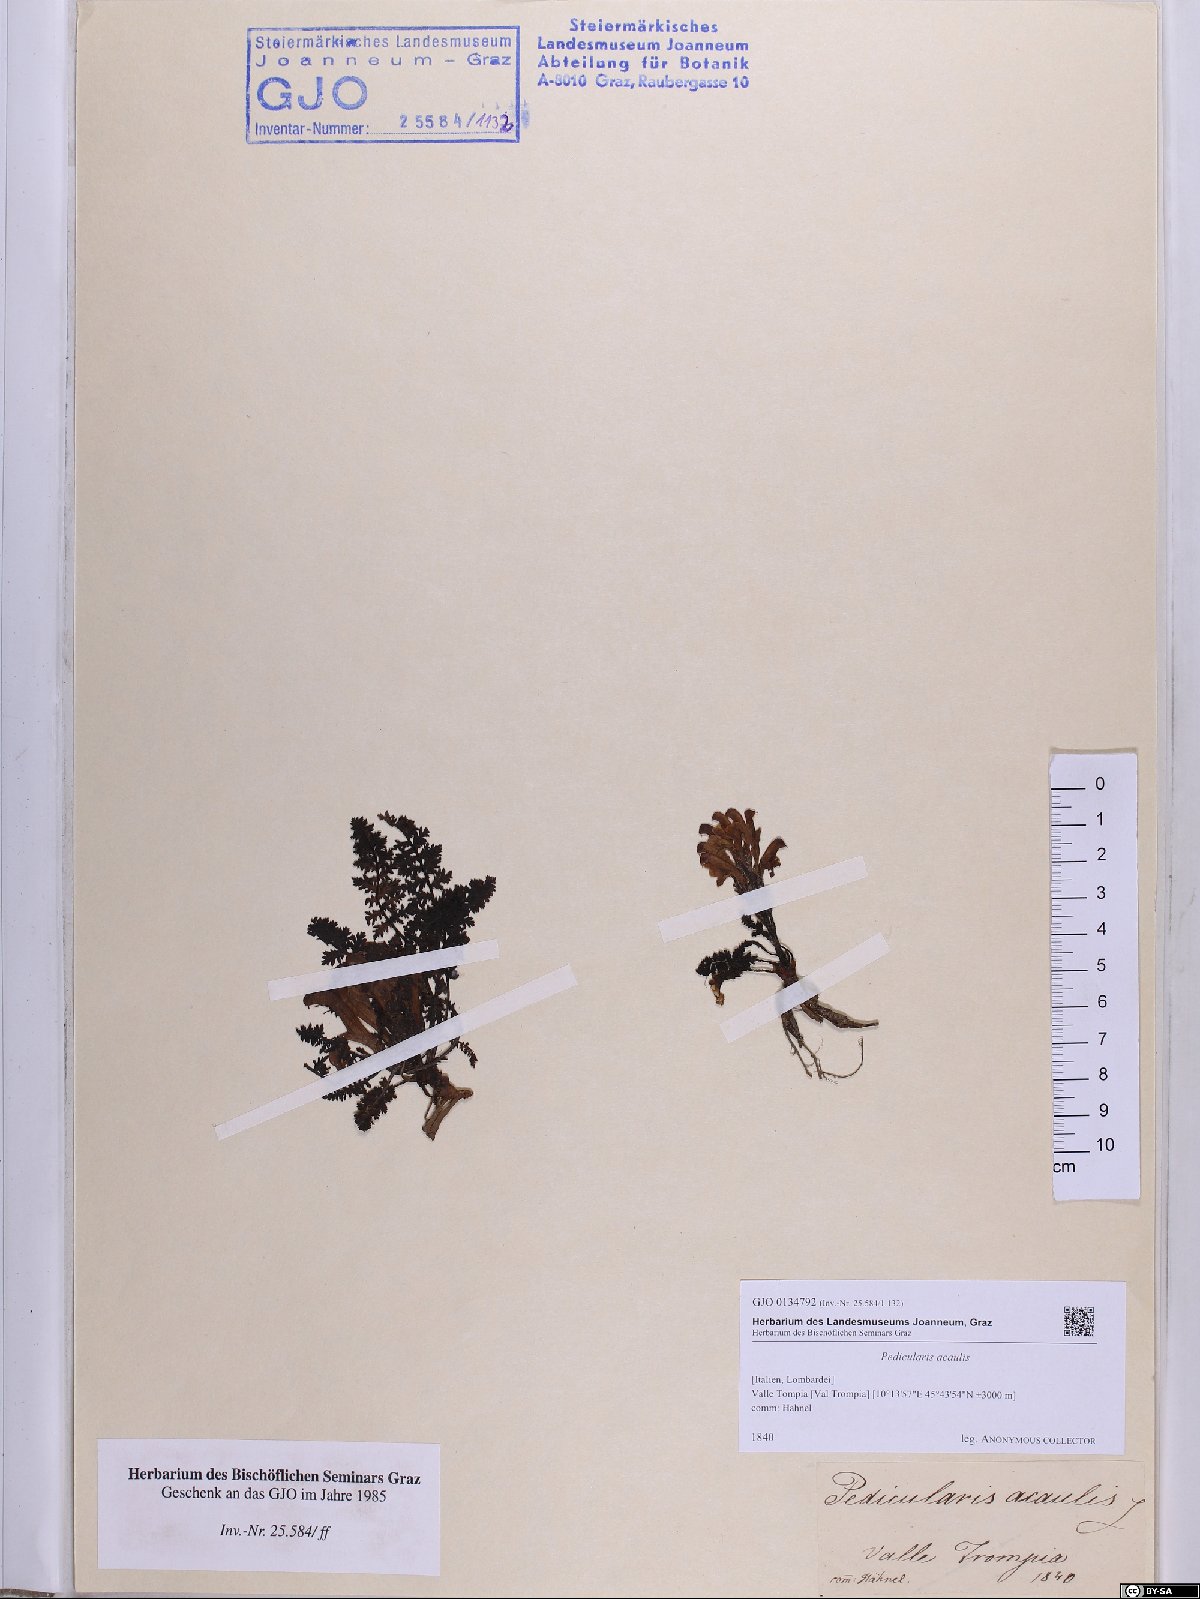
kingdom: Plantae
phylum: Tracheophyta
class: Magnoliopsida
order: Lamiales
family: Orobanchaceae
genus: Pedicularis
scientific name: Pedicularis acaulis
